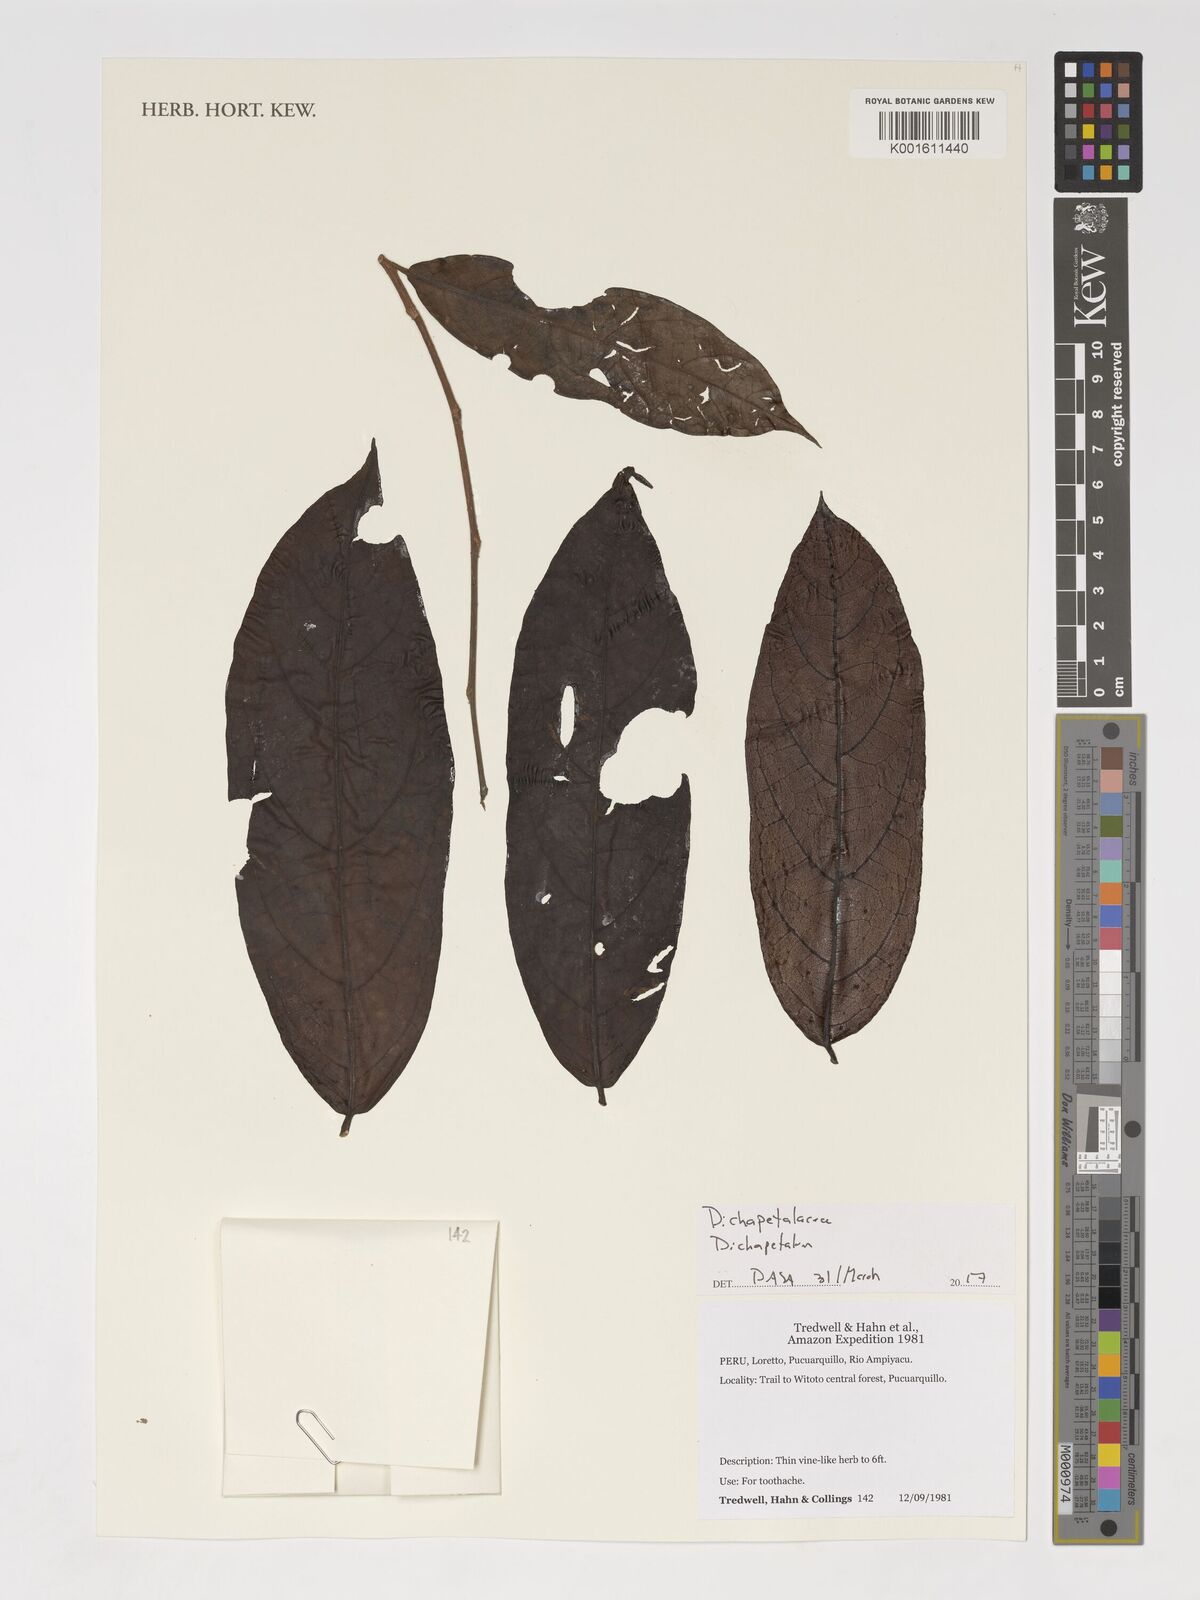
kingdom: Plantae
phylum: Tracheophyta
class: Magnoliopsida
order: Malpighiales
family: Dichapetalaceae
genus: Dichapetalum
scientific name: Dichapetalum
